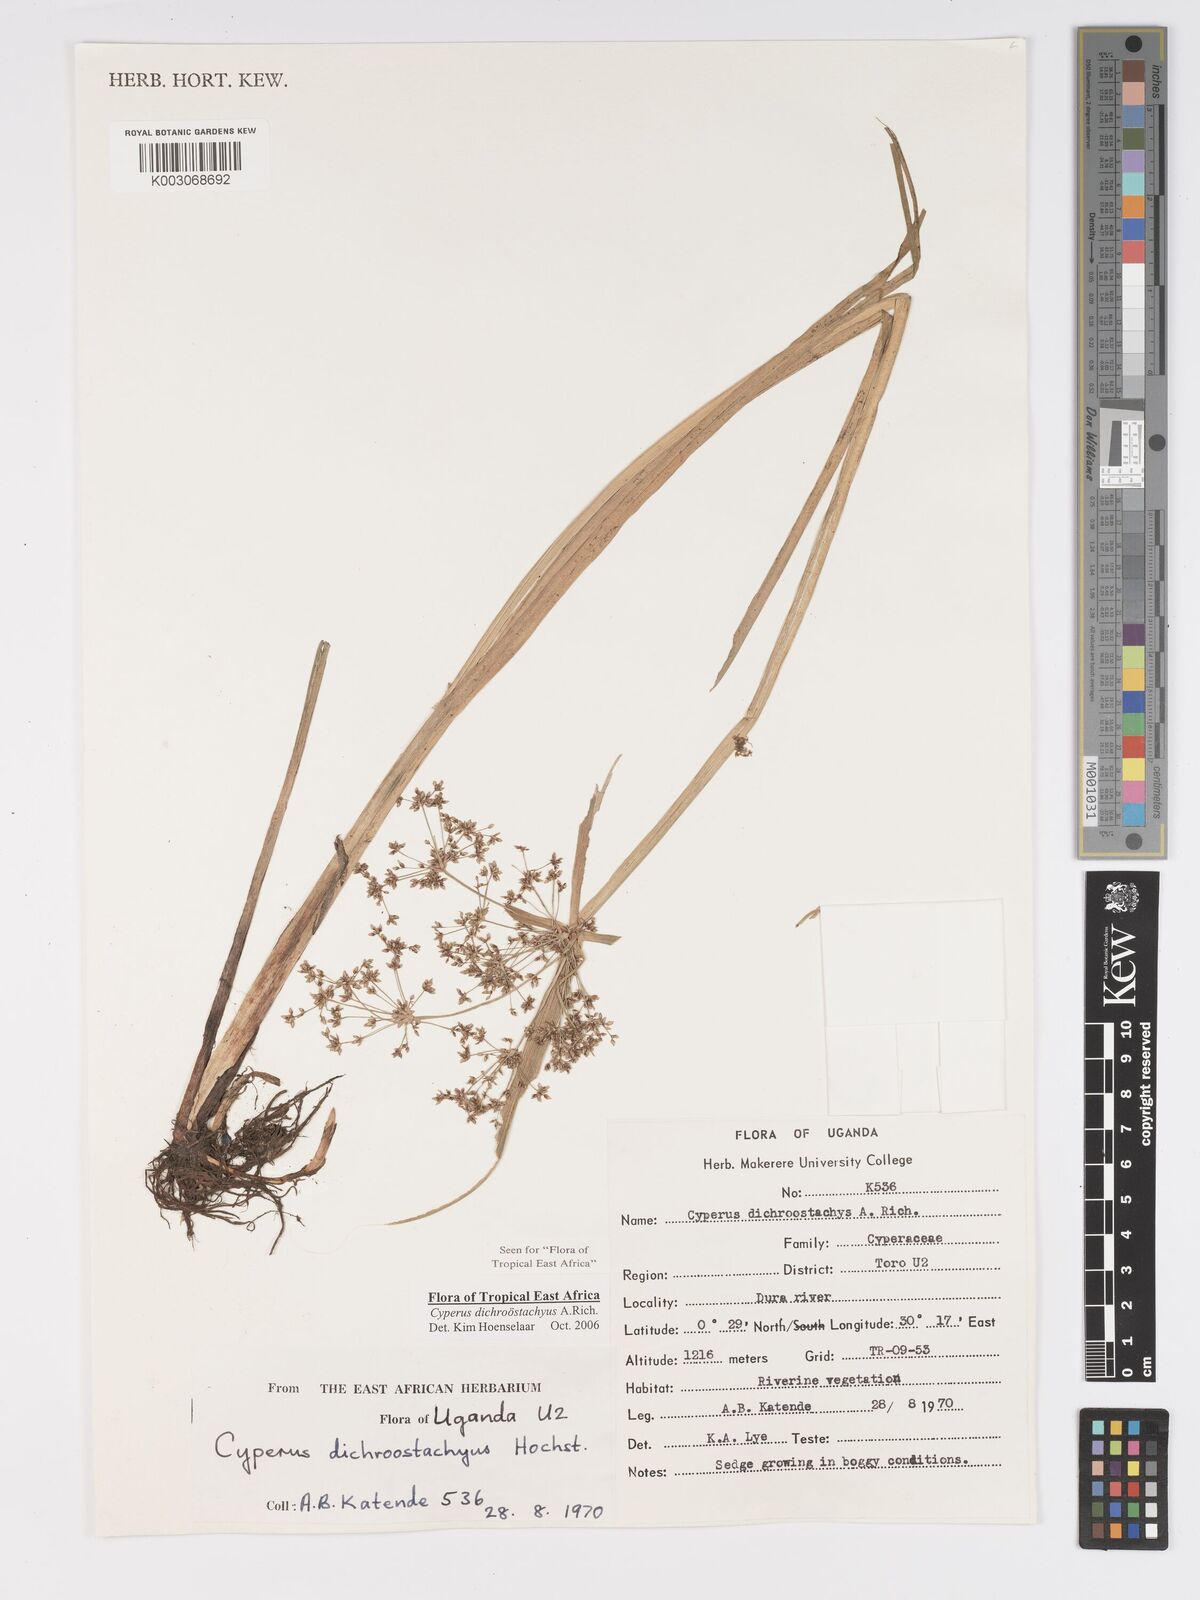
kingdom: Plantae
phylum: Tracheophyta
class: Liliopsida
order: Poales
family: Cyperaceae
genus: Cyperus
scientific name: Cyperus dichrostachyus
